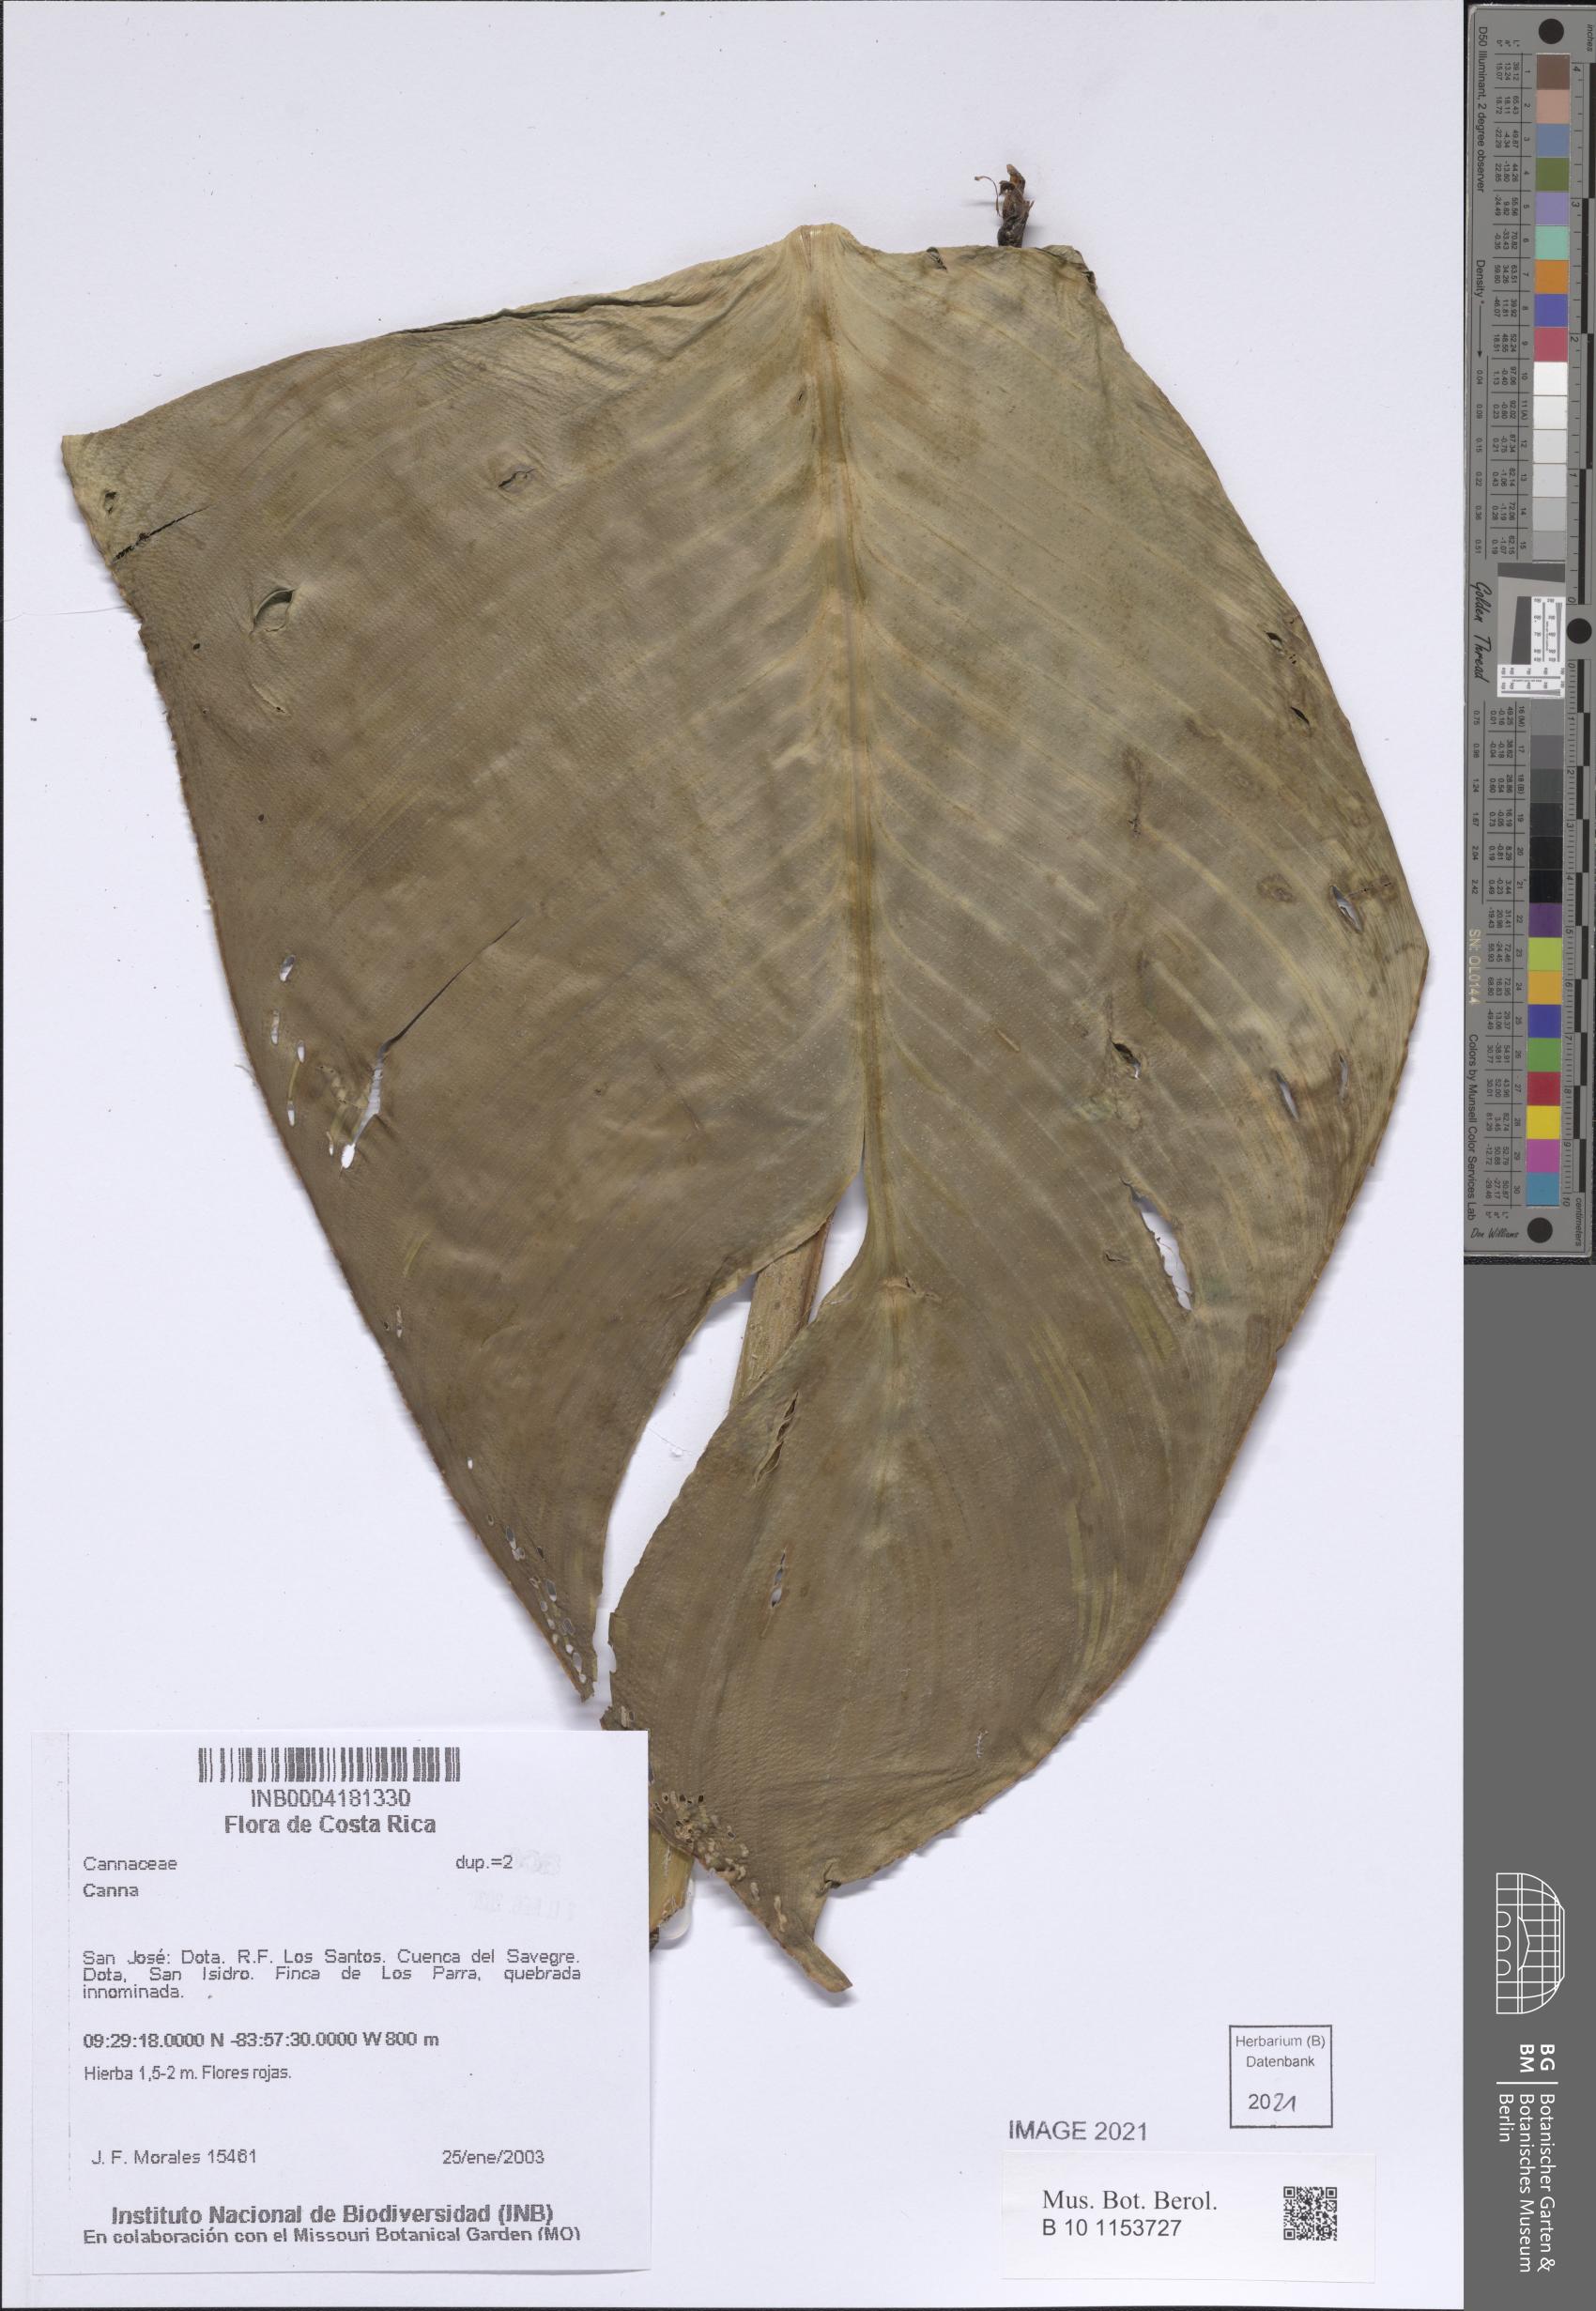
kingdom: Plantae
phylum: Tracheophyta
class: Liliopsida
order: Zingiberales
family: Cannaceae
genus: Canna
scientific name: Canna
